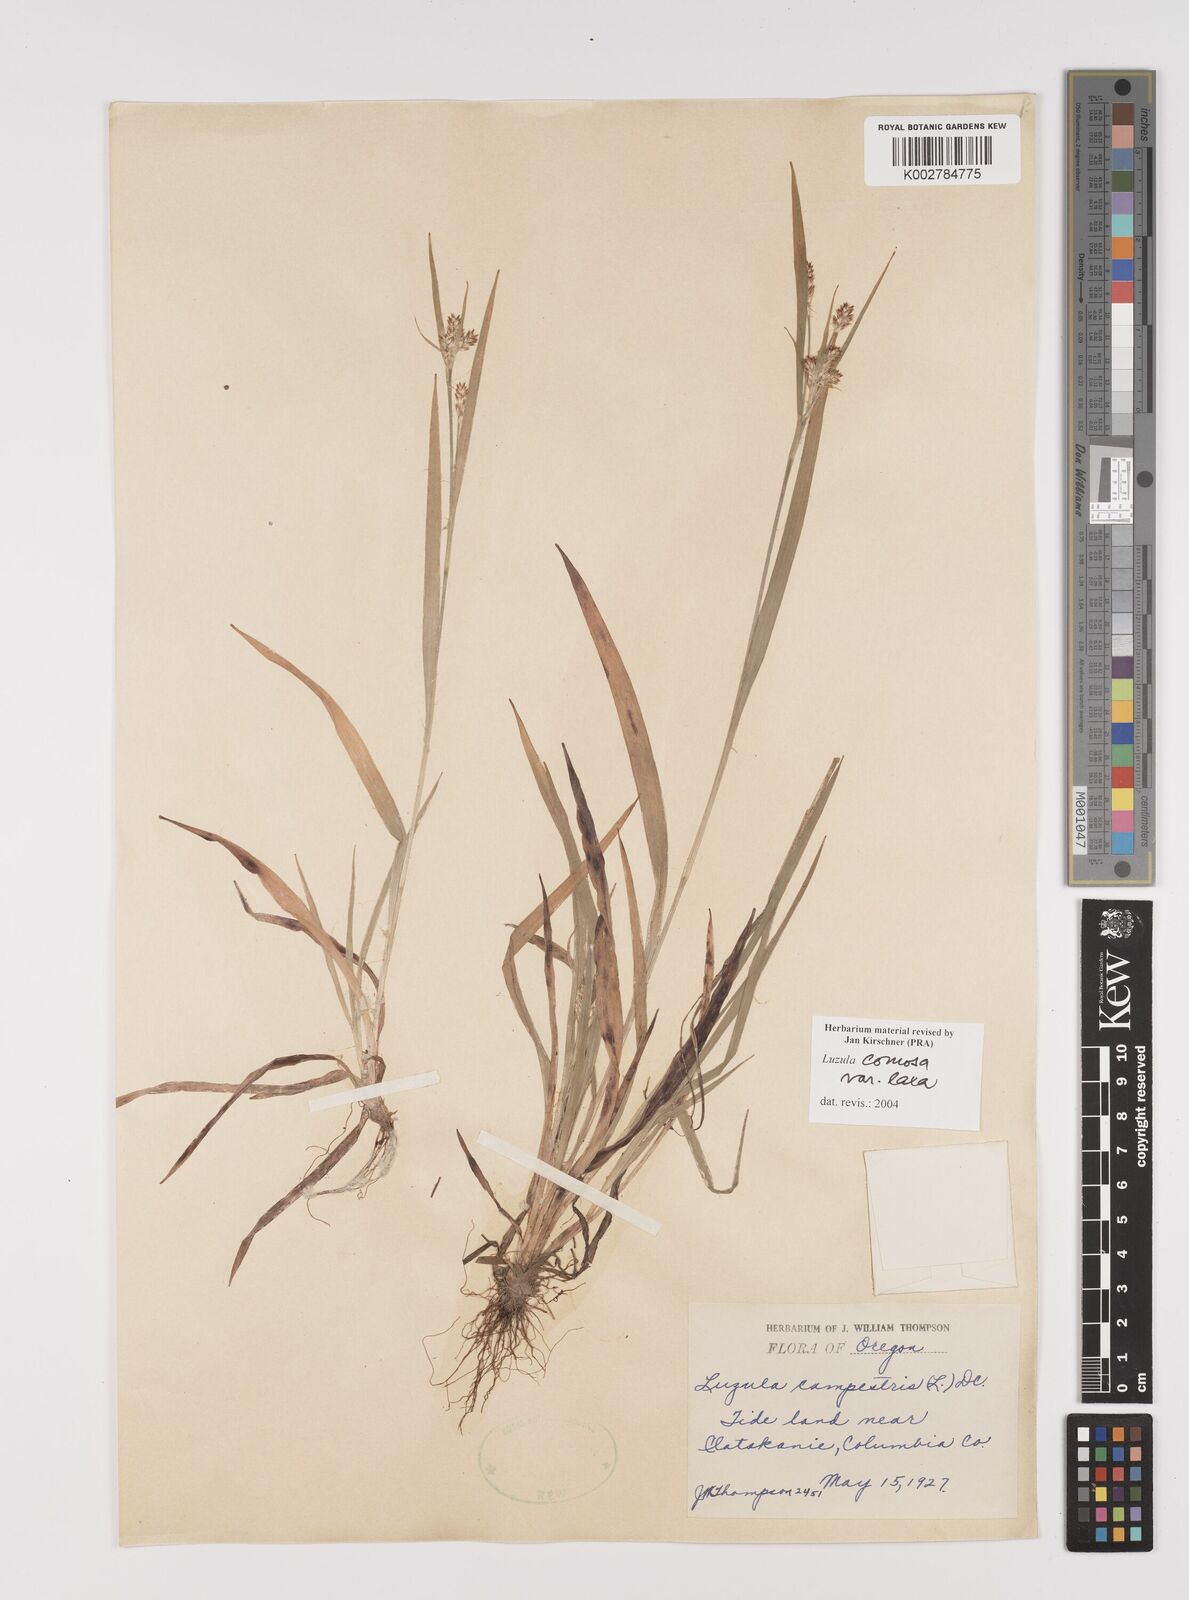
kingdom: Plantae
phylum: Tracheophyta
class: Liliopsida
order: Poales
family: Juncaceae
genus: Luzula
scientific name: Luzula comosa
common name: Pacific woodrush
